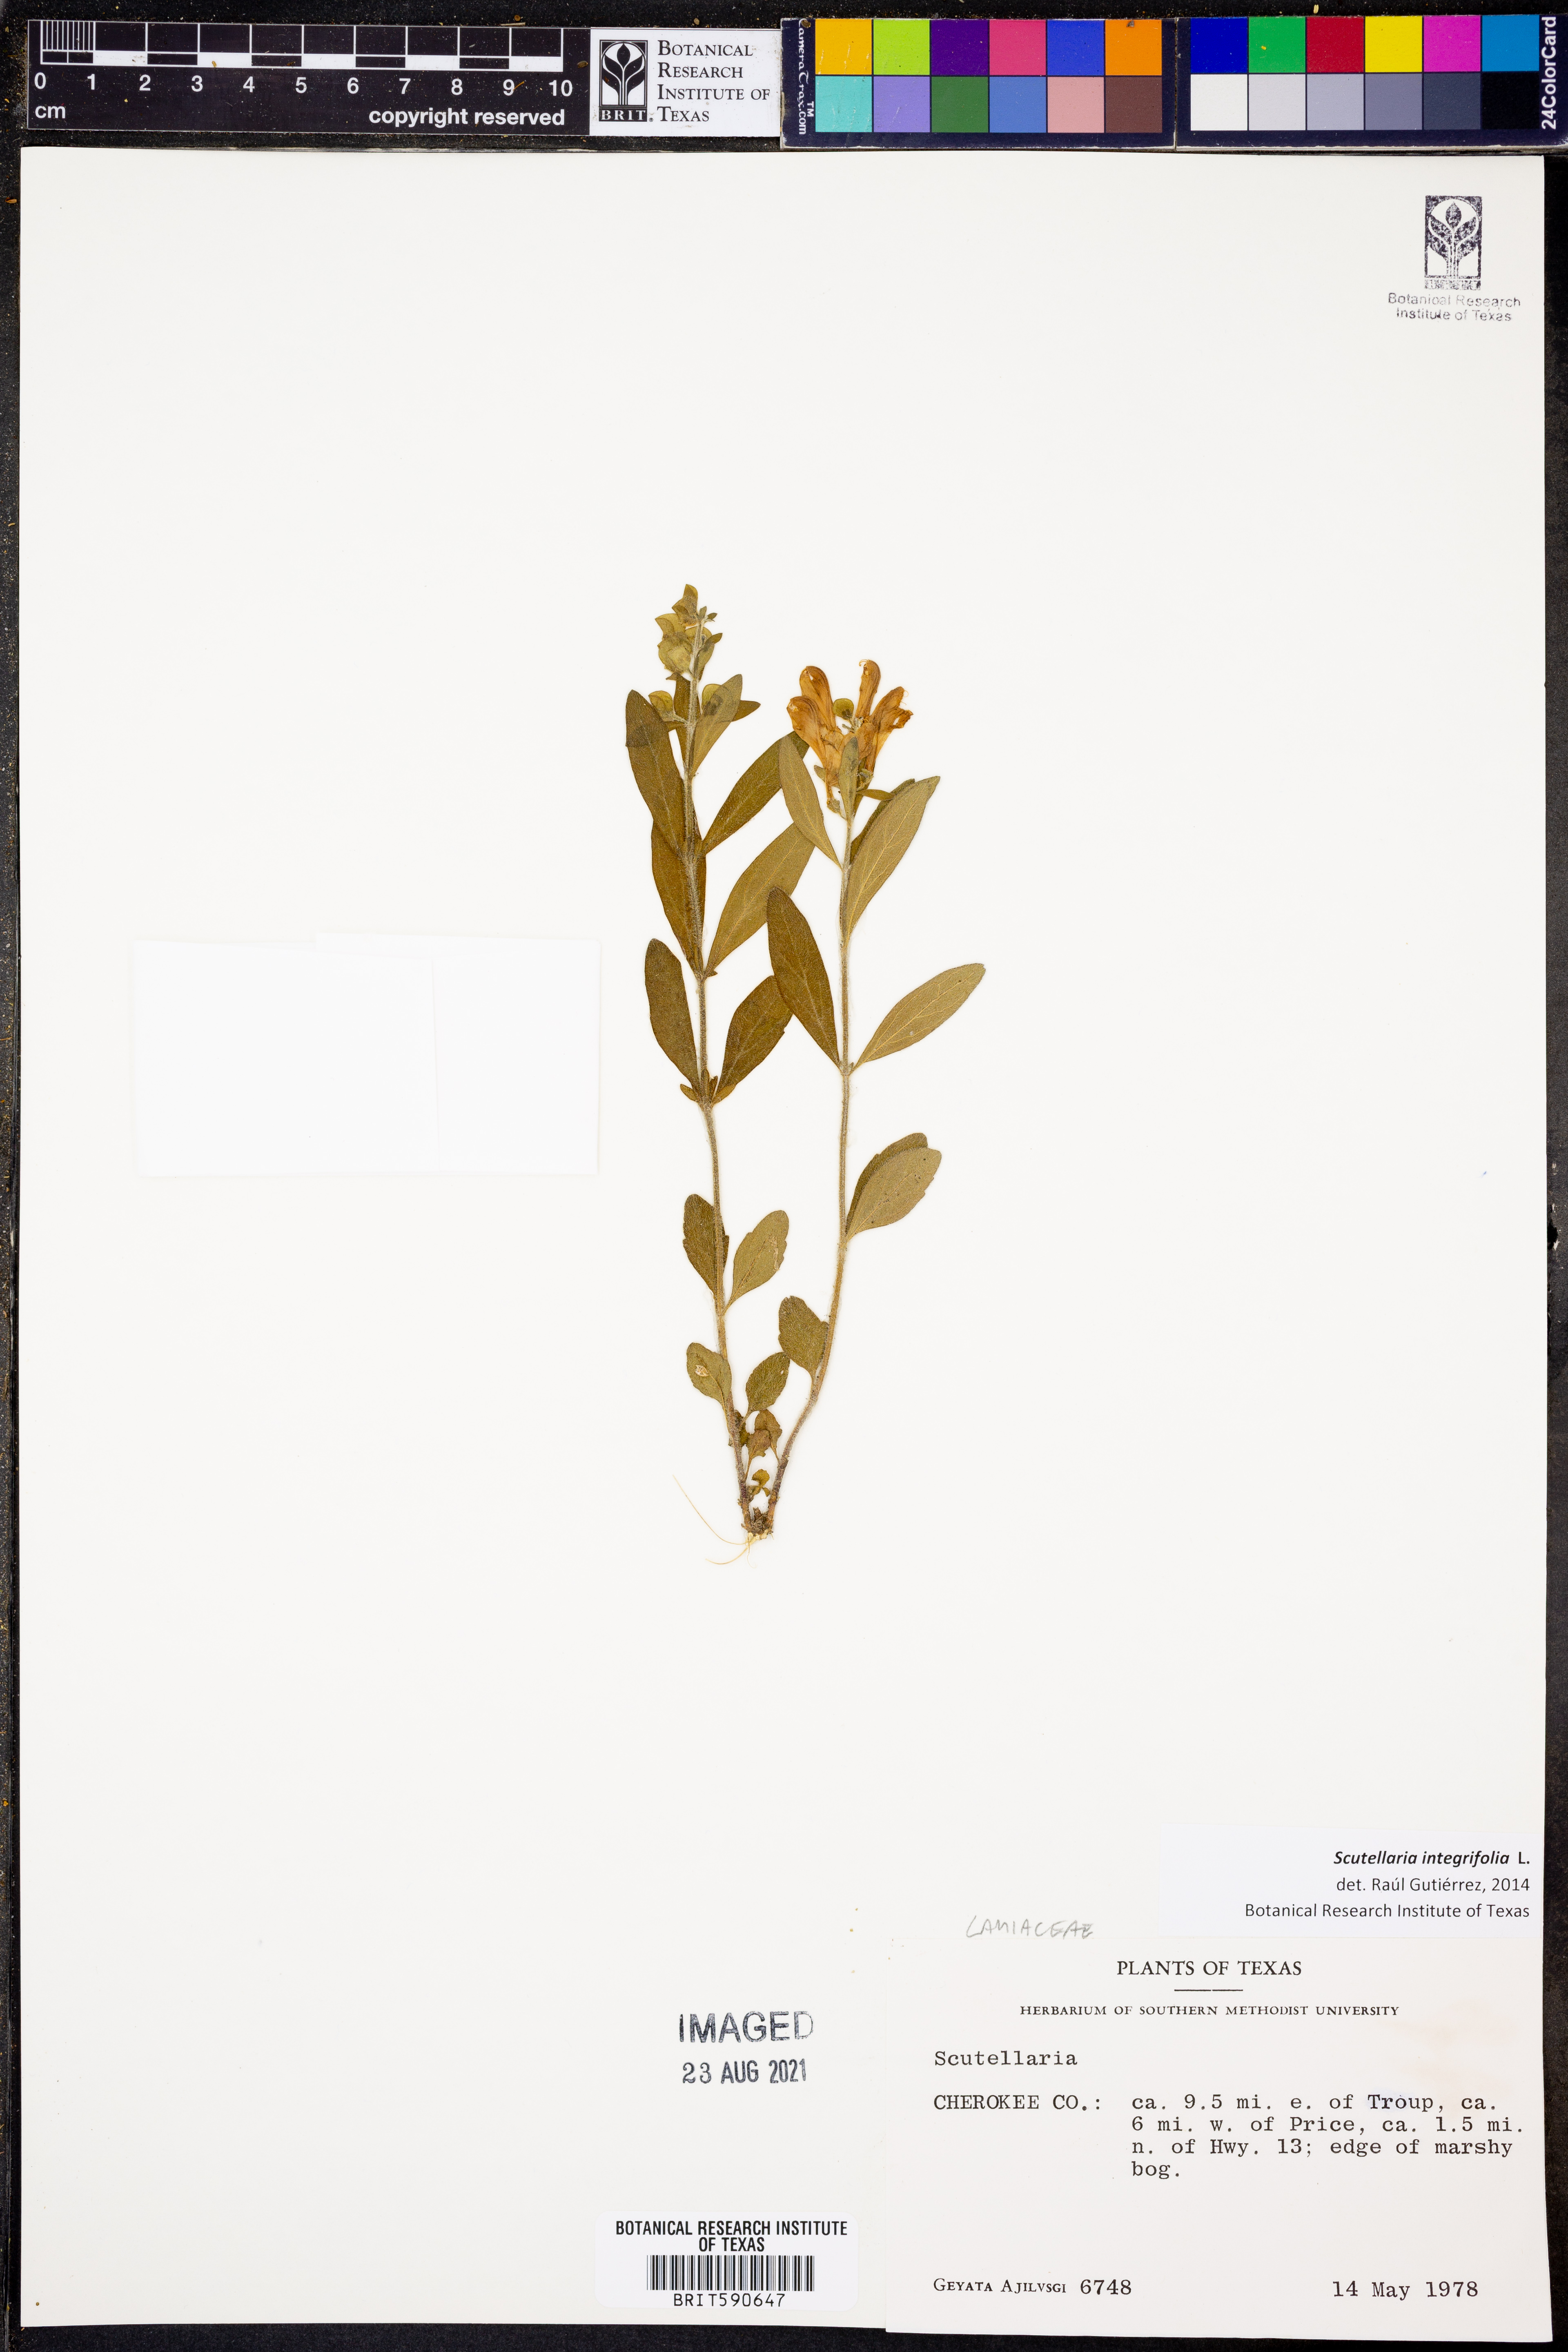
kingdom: Plantae
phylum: Tracheophyta
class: Magnoliopsida
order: Lamiales
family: Lamiaceae
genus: Scutellaria
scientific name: Scutellaria integrifolia
